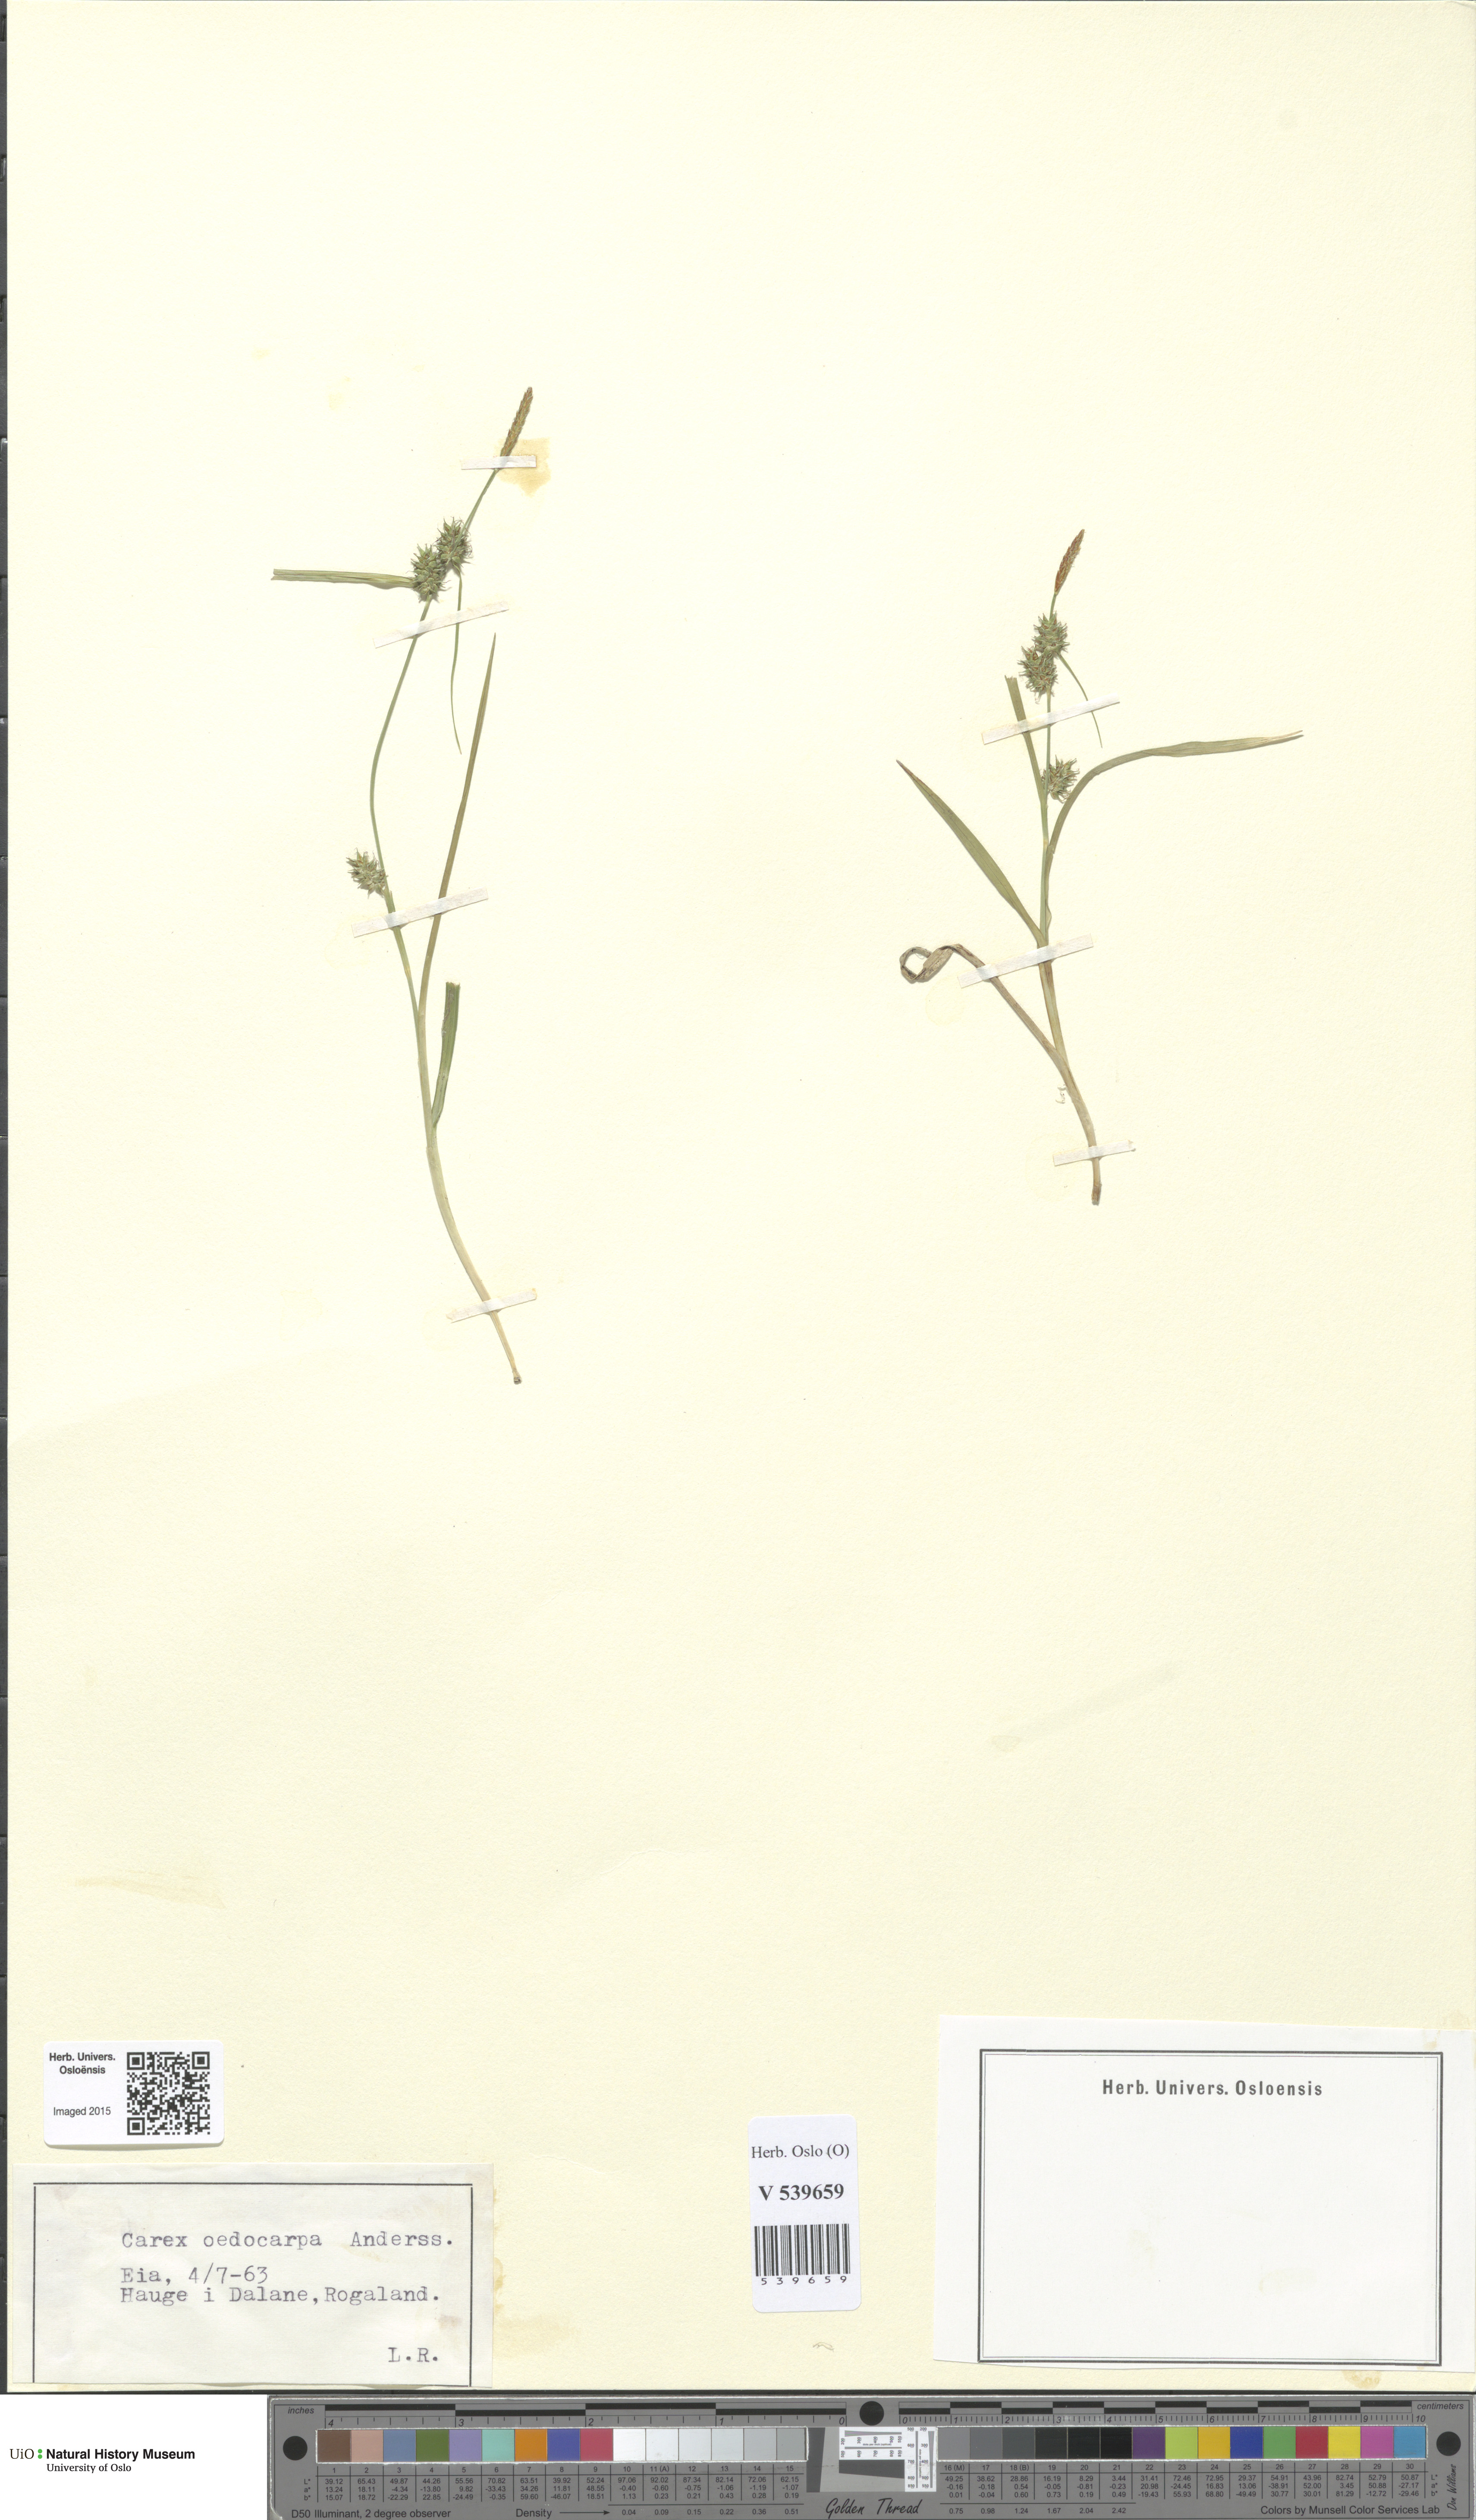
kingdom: Plantae
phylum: Tracheophyta
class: Liliopsida
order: Poales
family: Cyperaceae
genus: Carex
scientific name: Carex demissa
